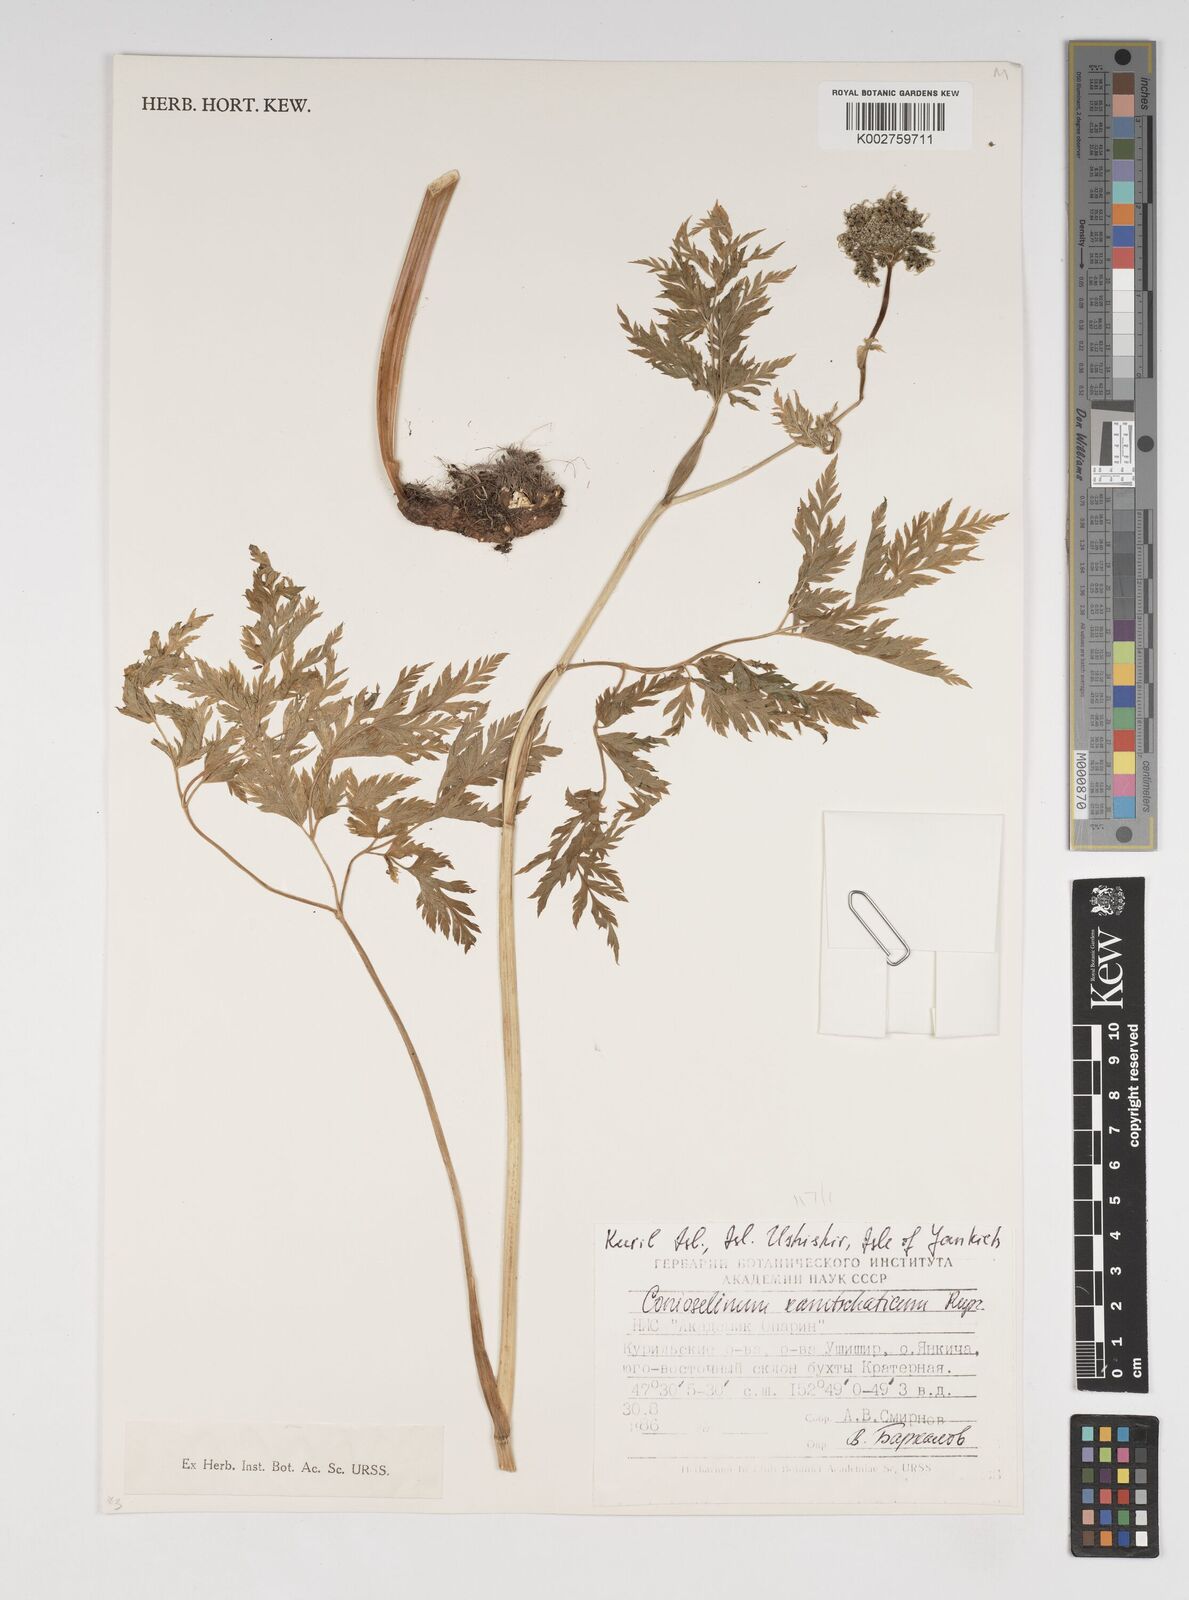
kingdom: Plantae
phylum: Tracheophyta
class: Magnoliopsida
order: Apiales
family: Apiaceae
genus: Cnidium
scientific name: Cnidium monnieri
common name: Monnier's snowparsley
